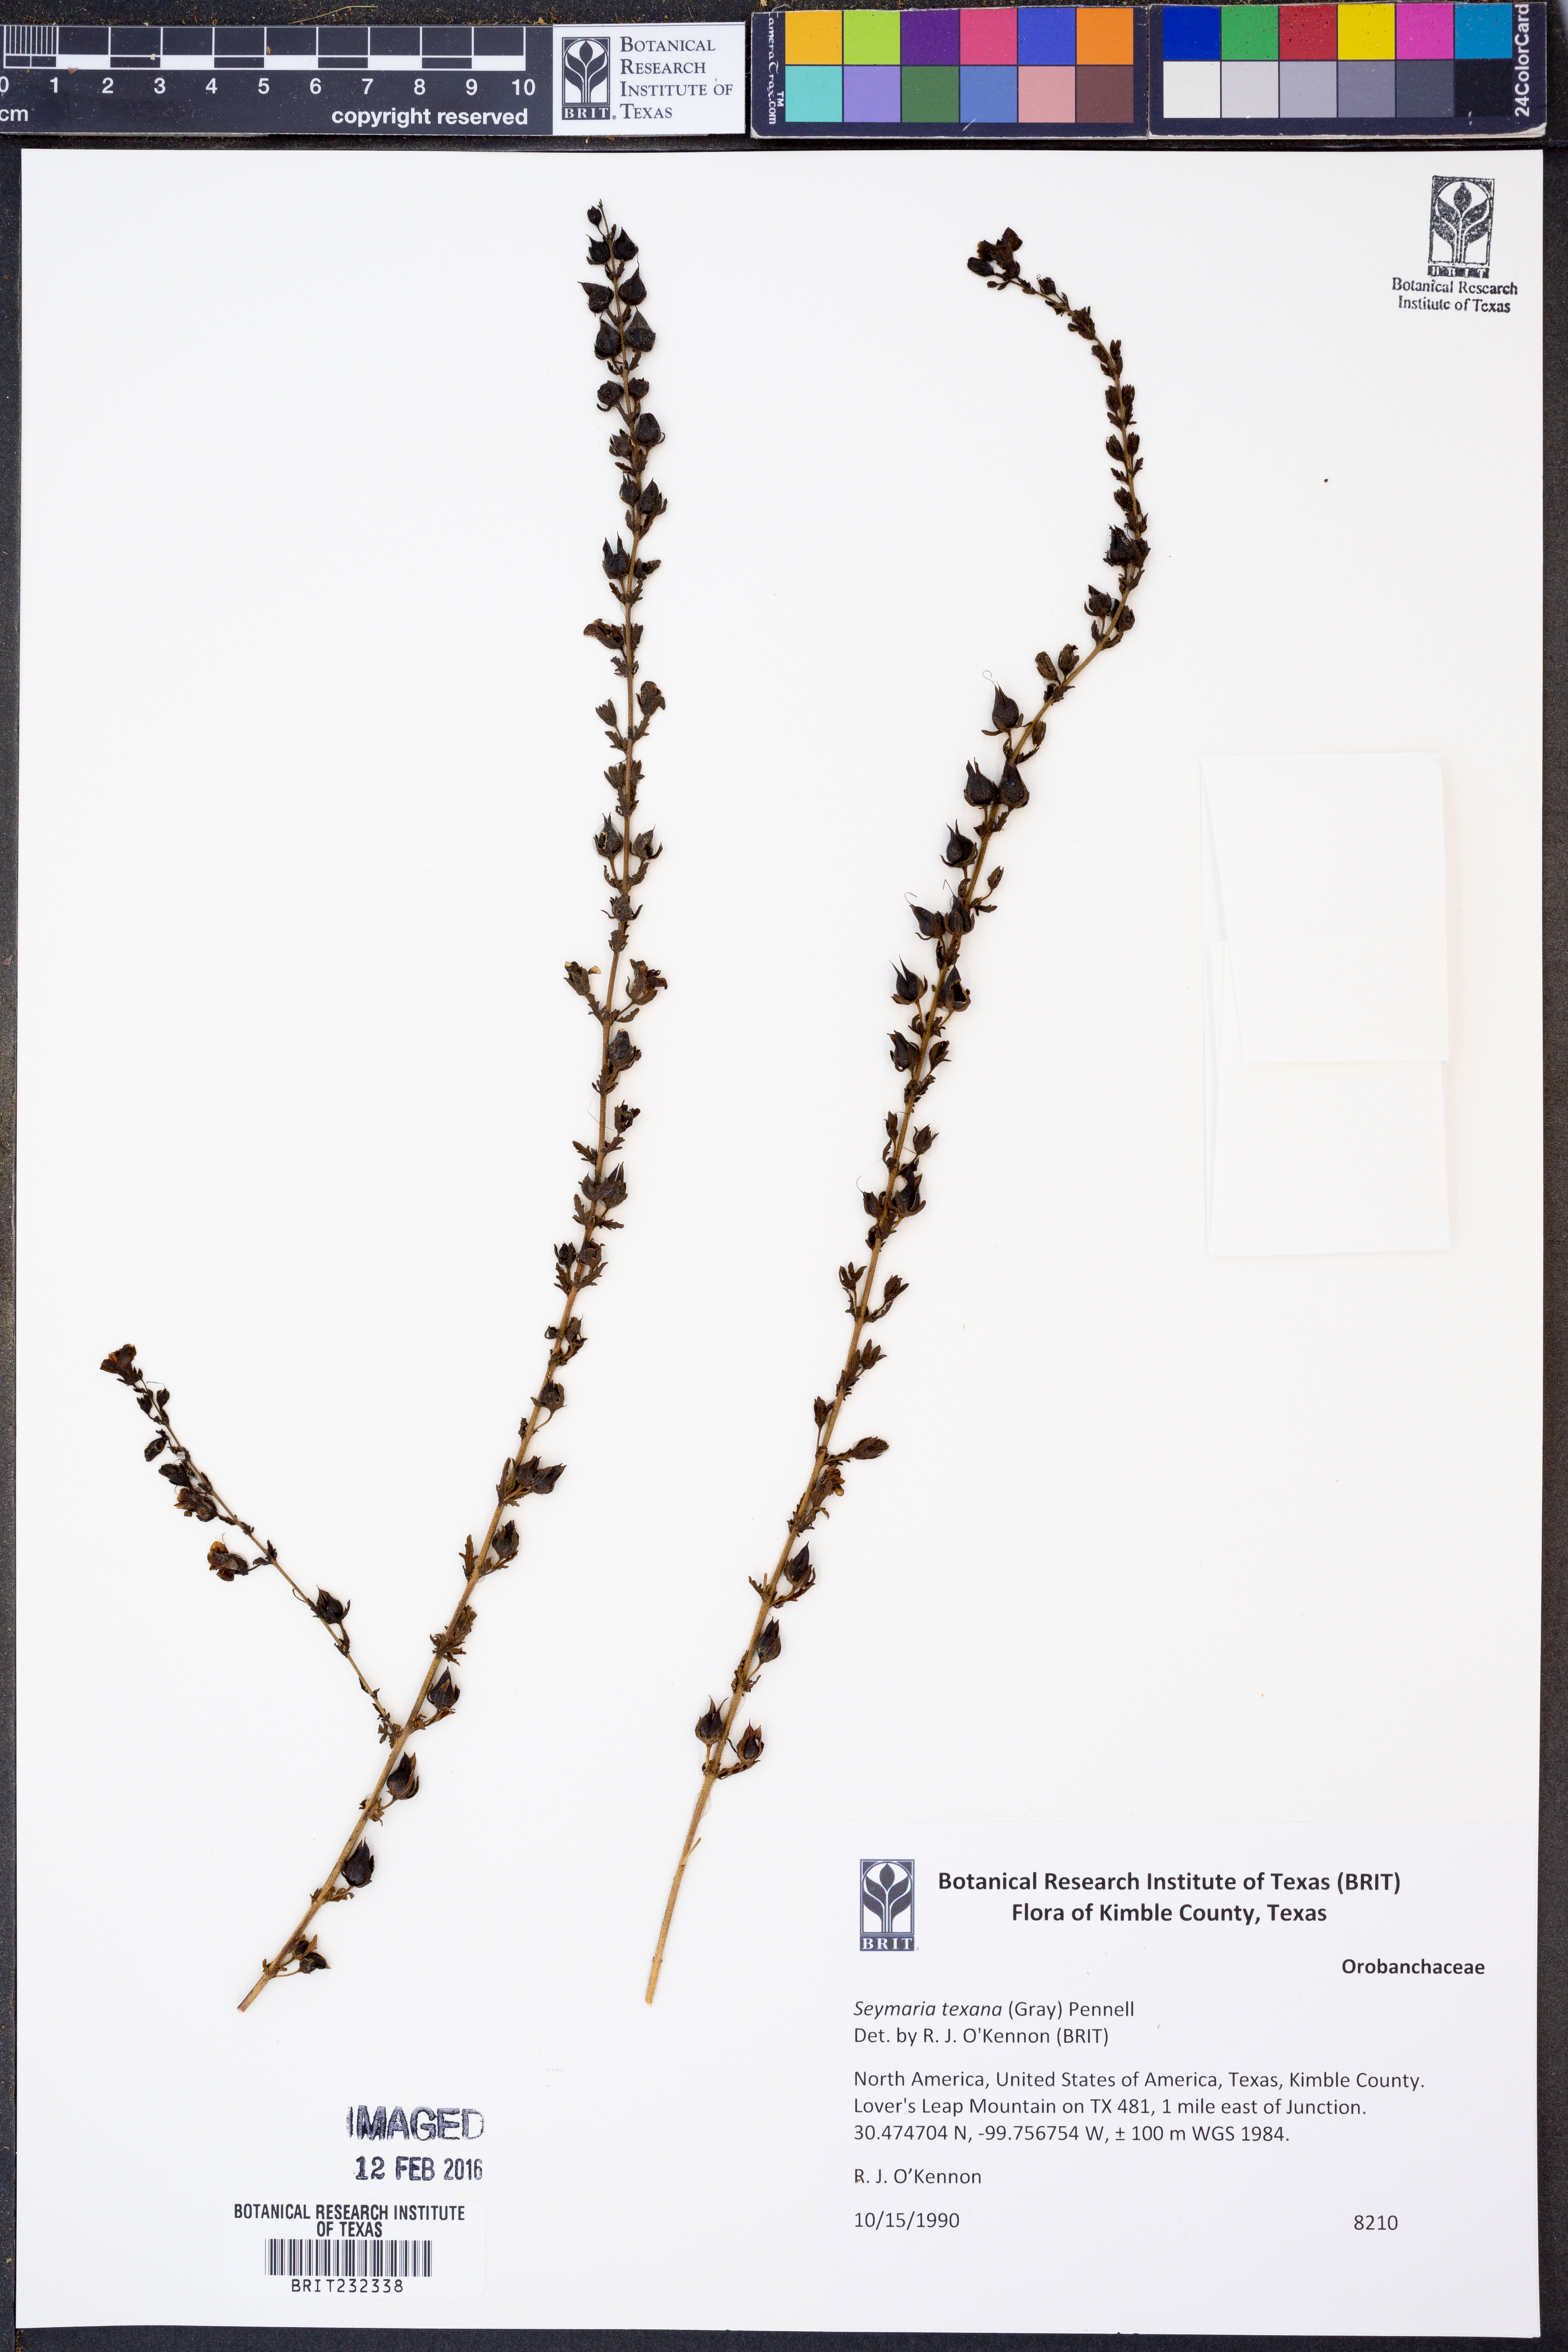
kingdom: Plantae
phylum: Tracheophyta
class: Magnoliopsida
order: Lamiales
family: Orobanchaceae
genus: Seymeria
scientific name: Seymeria bipinnatisecta
